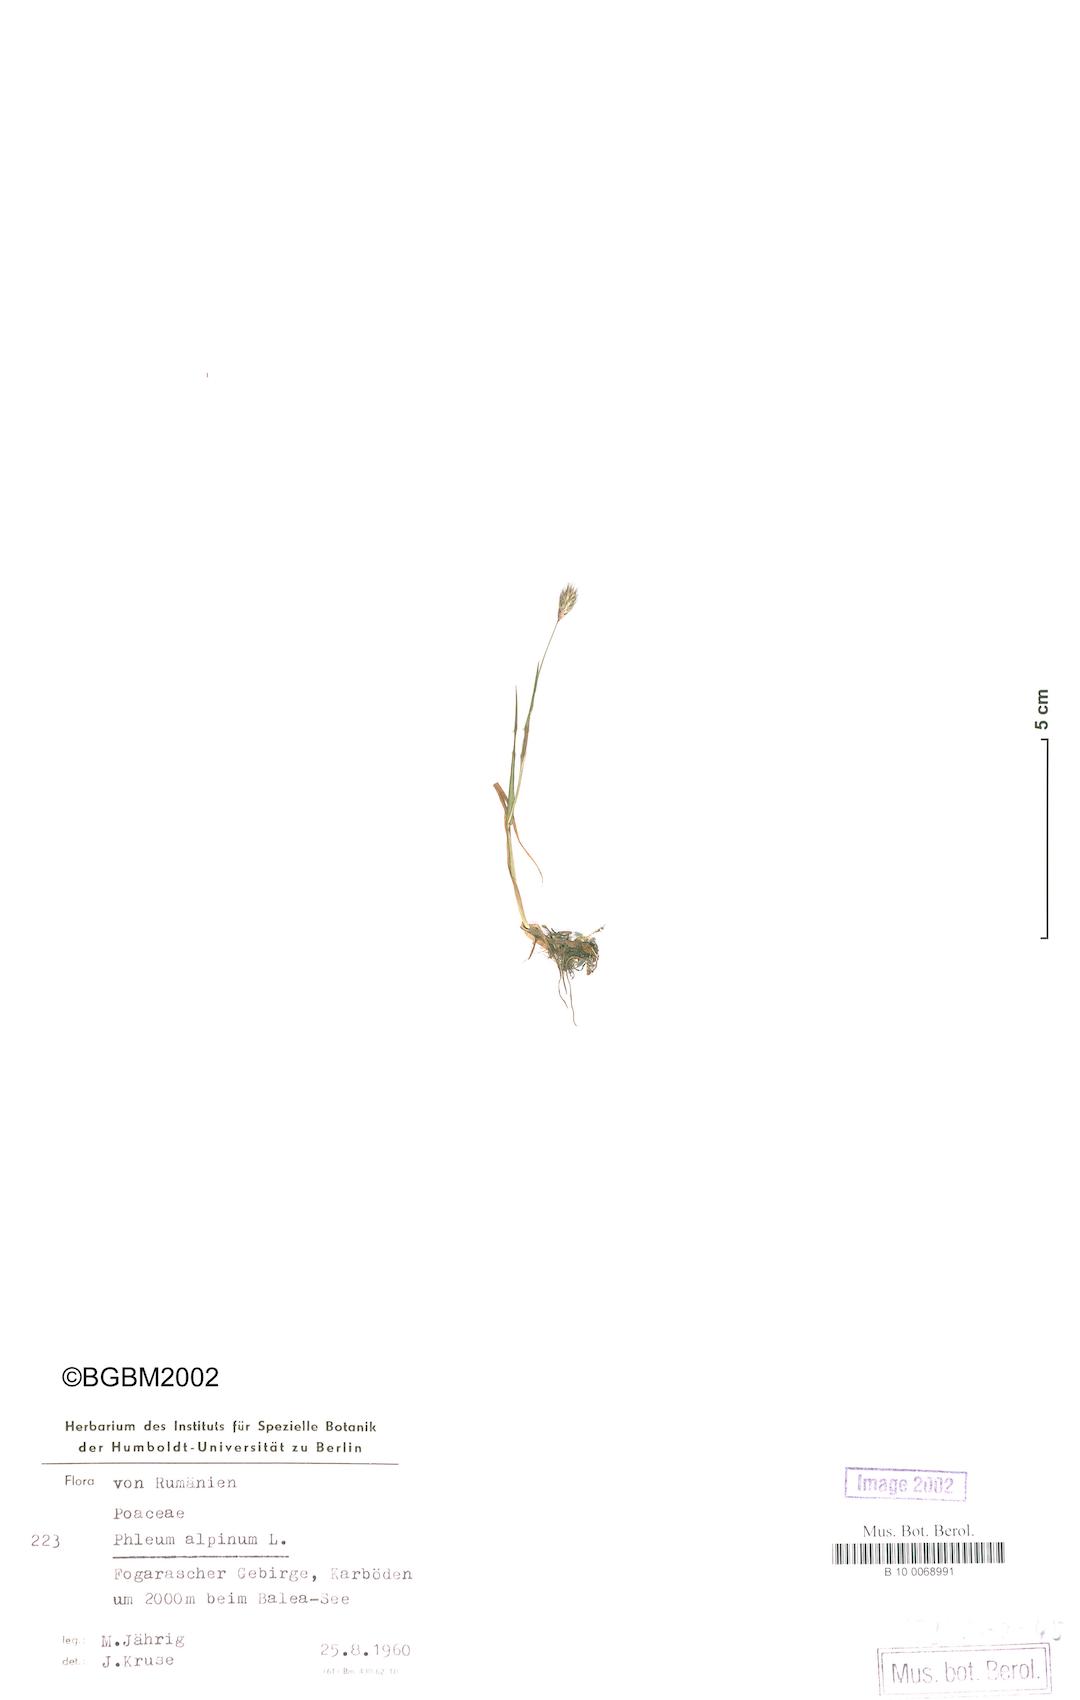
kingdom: Plantae
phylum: Tracheophyta
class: Liliopsida
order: Poales
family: Poaceae
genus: Phleum
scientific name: Phleum alpinum
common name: Alpine cat's-tail
